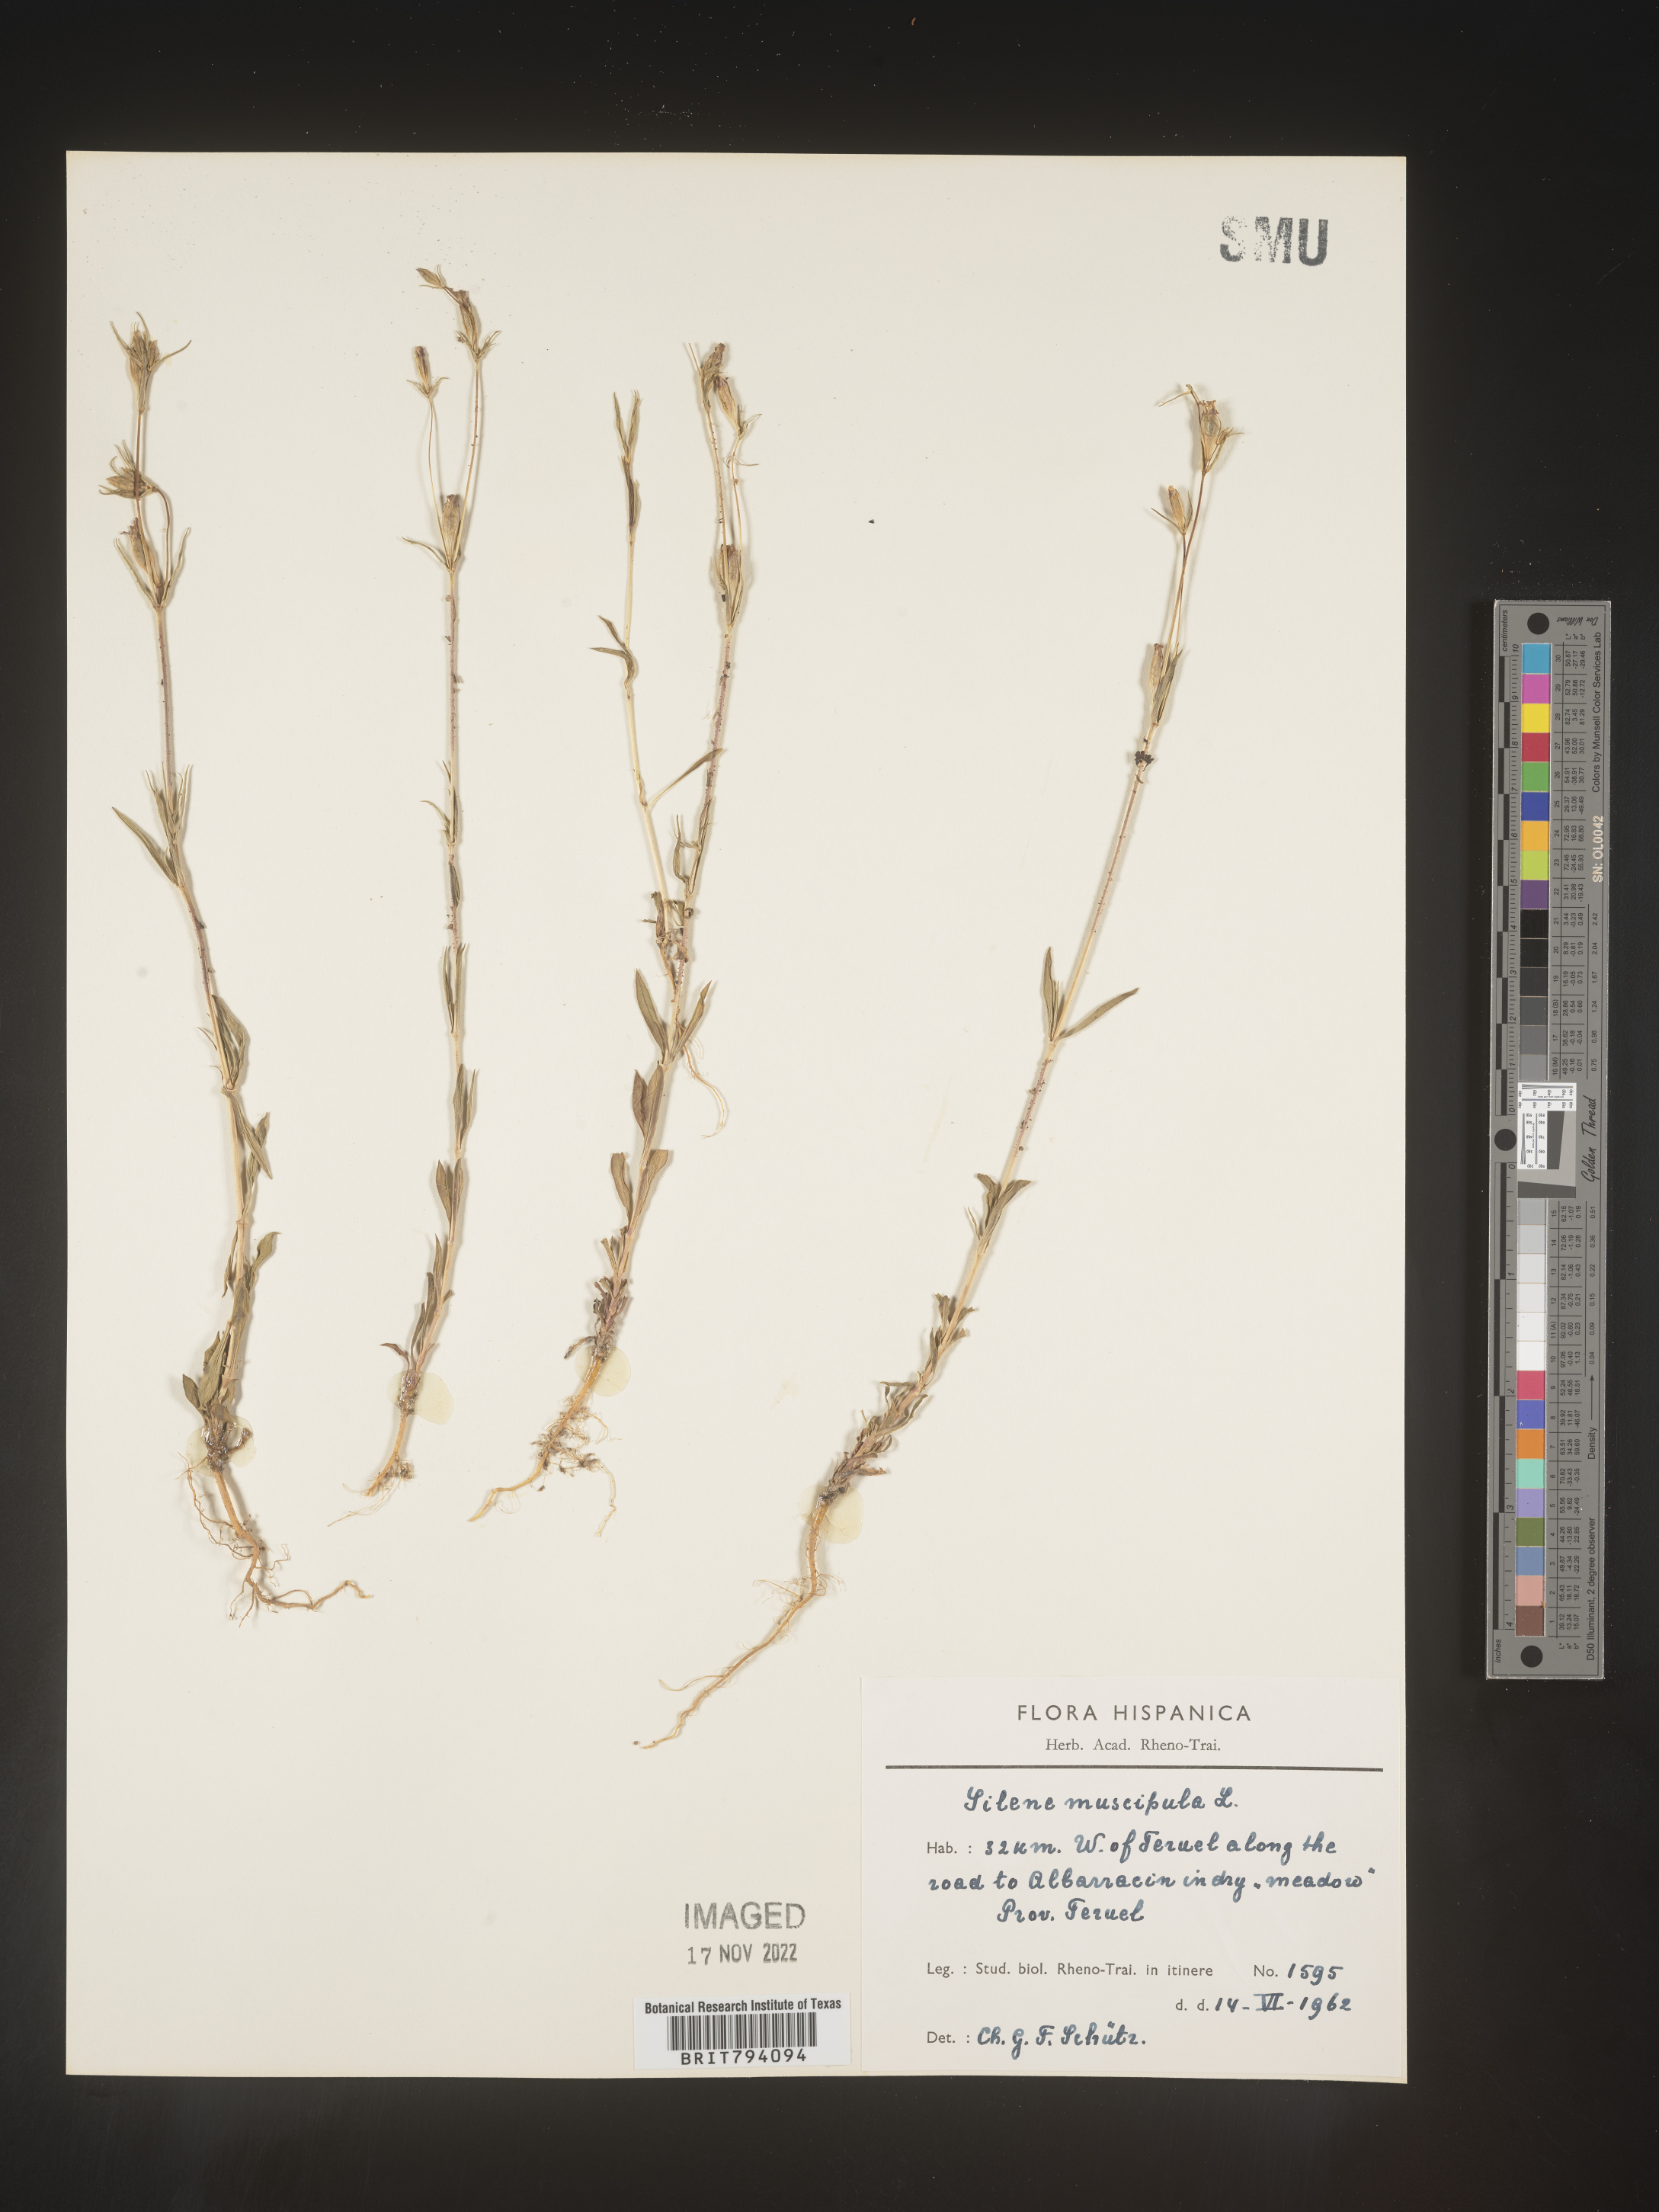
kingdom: Plantae
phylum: Tracheophyta
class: Magnoliopsida
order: Caryophyllales
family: Caryophyllaceae
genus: Silene
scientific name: Silene muscipula
